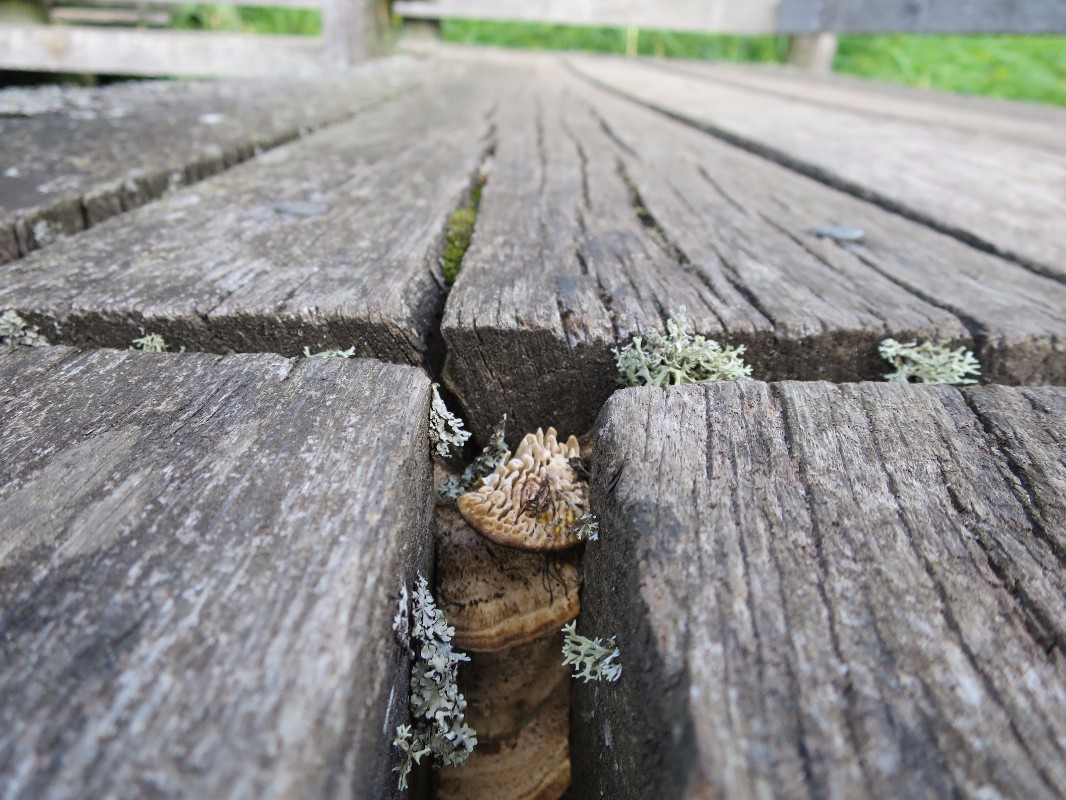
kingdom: Fungi
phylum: Basidiomycota
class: Agaricomycetes
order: Polyporales
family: Fomitopsidaceae
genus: Daedalea
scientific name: Daedalea quercina
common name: ege-labyrintsvamp
